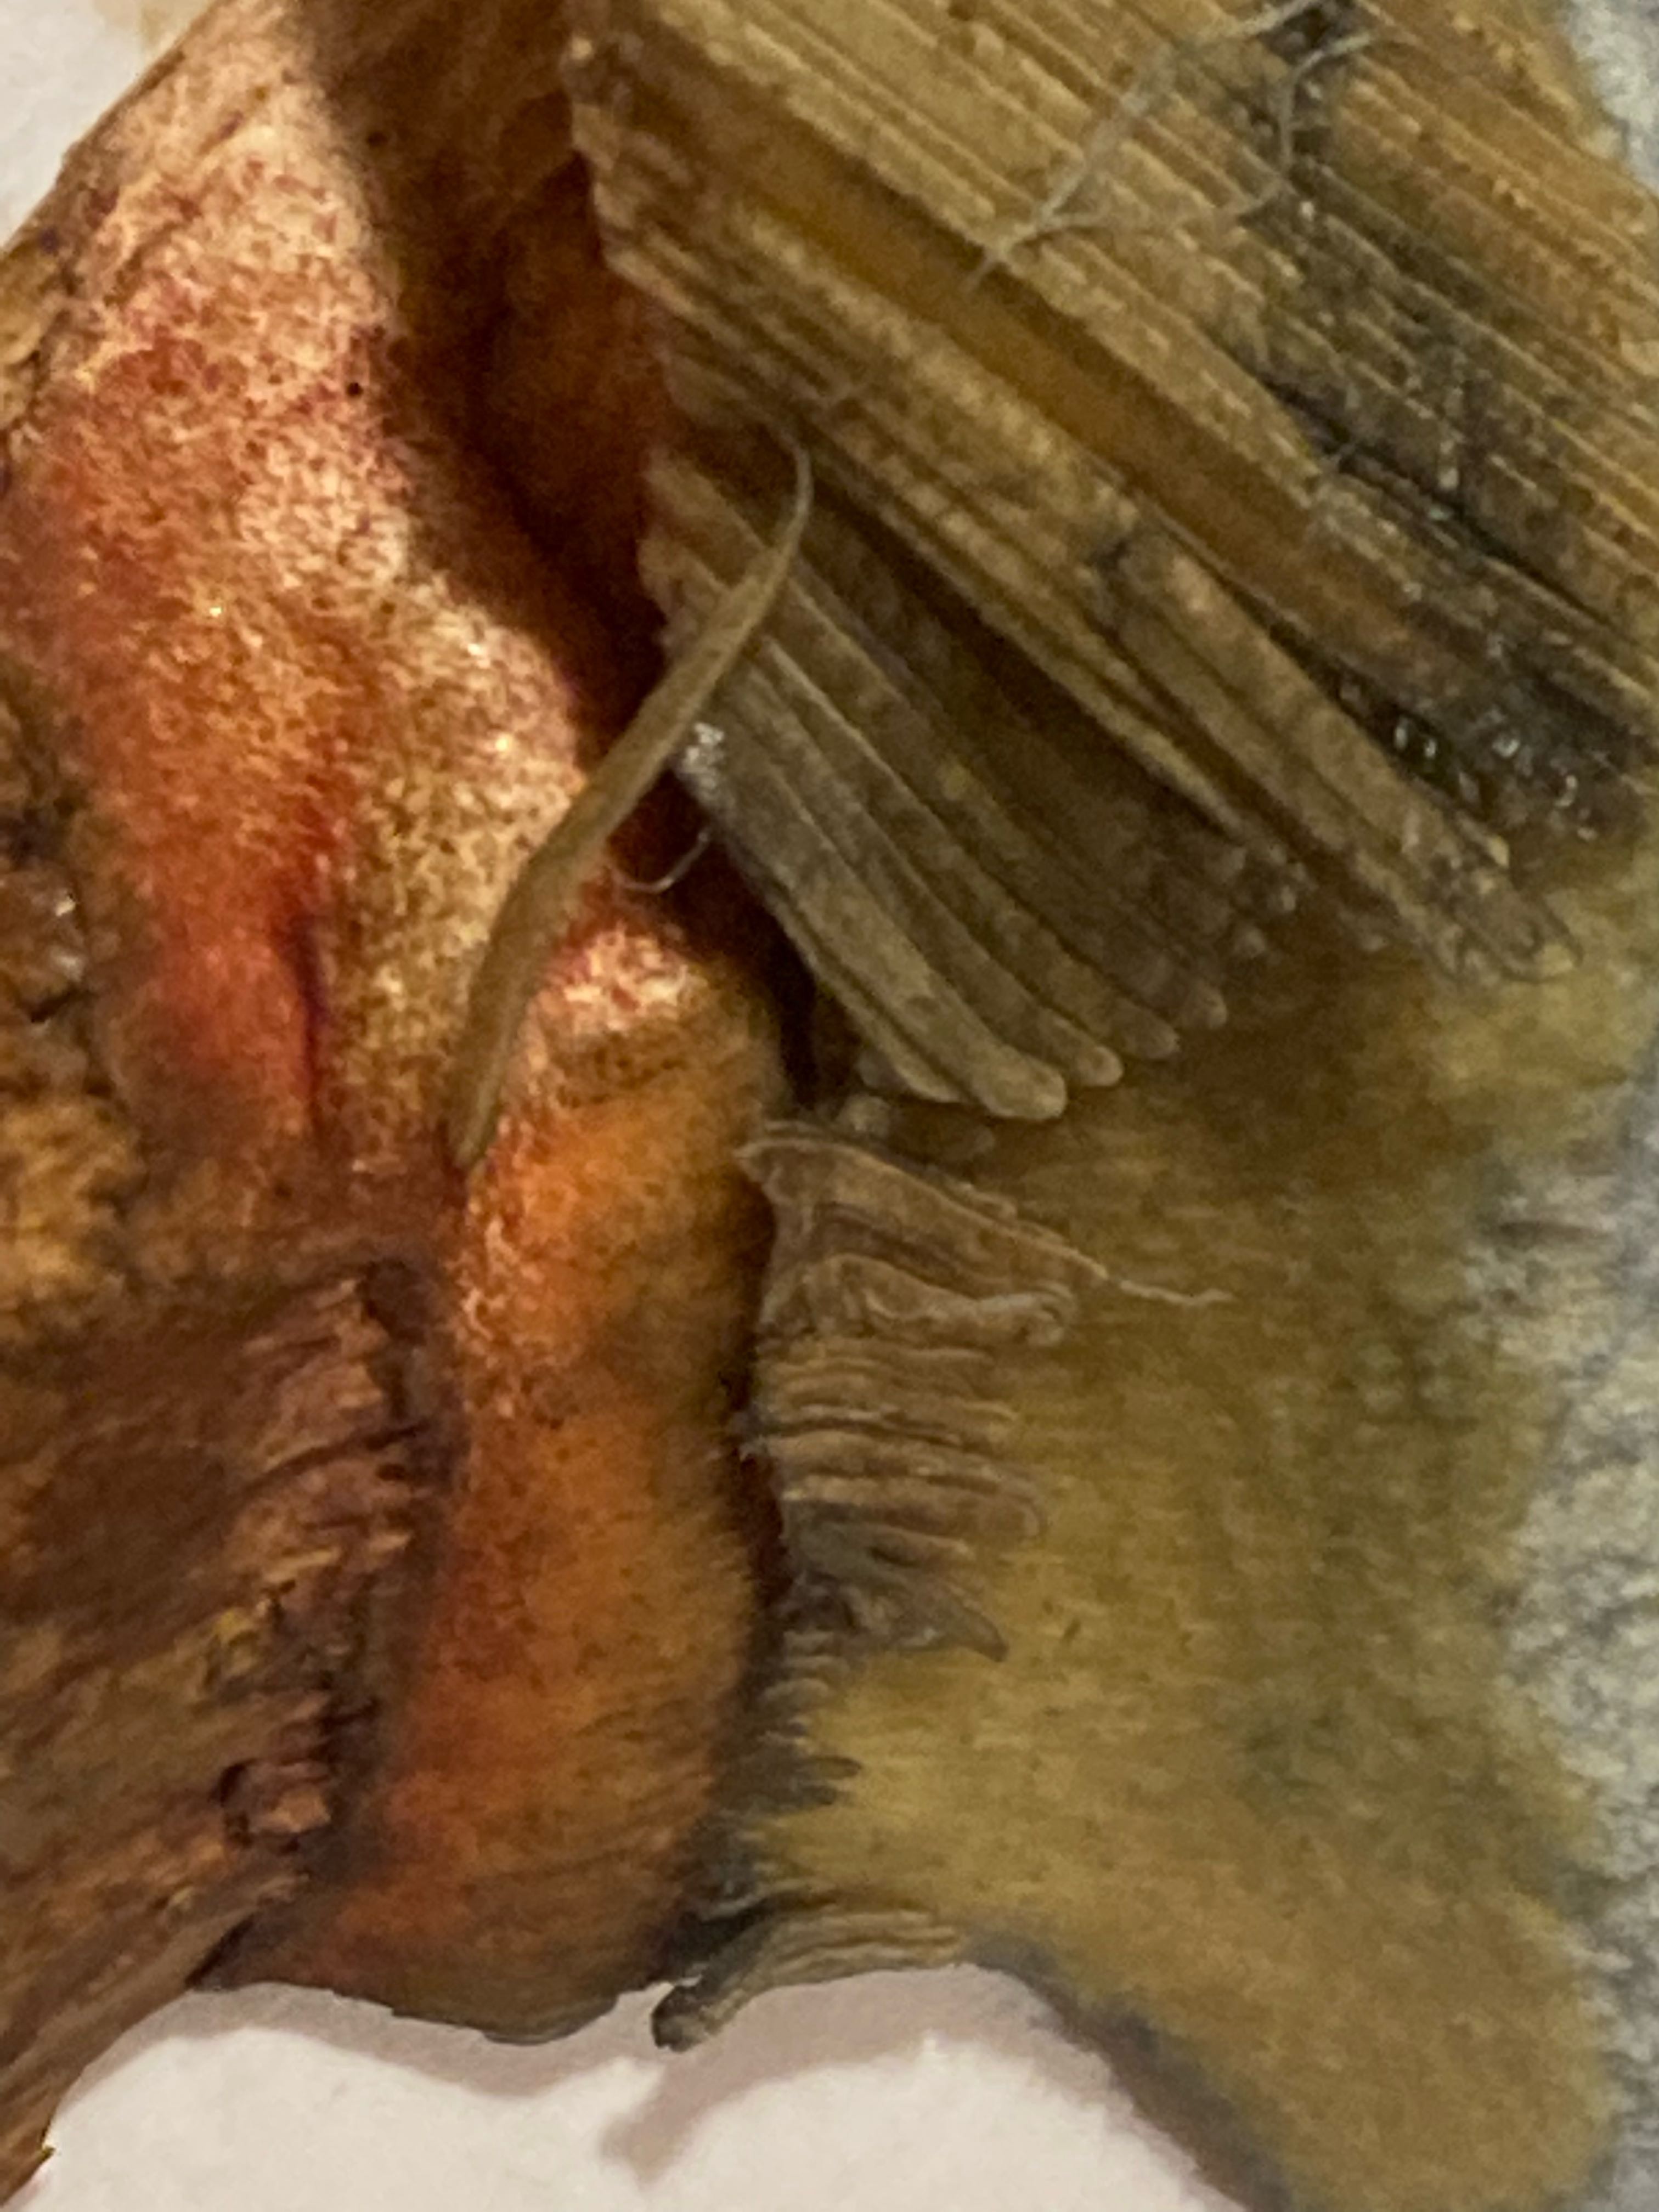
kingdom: Fungi
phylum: Basidiomycota
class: Agaricomycetes
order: Boletales
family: Boletaceae
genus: Neoboletus
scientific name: Neoboletus xanthopus
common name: finprikket indigorørhat
